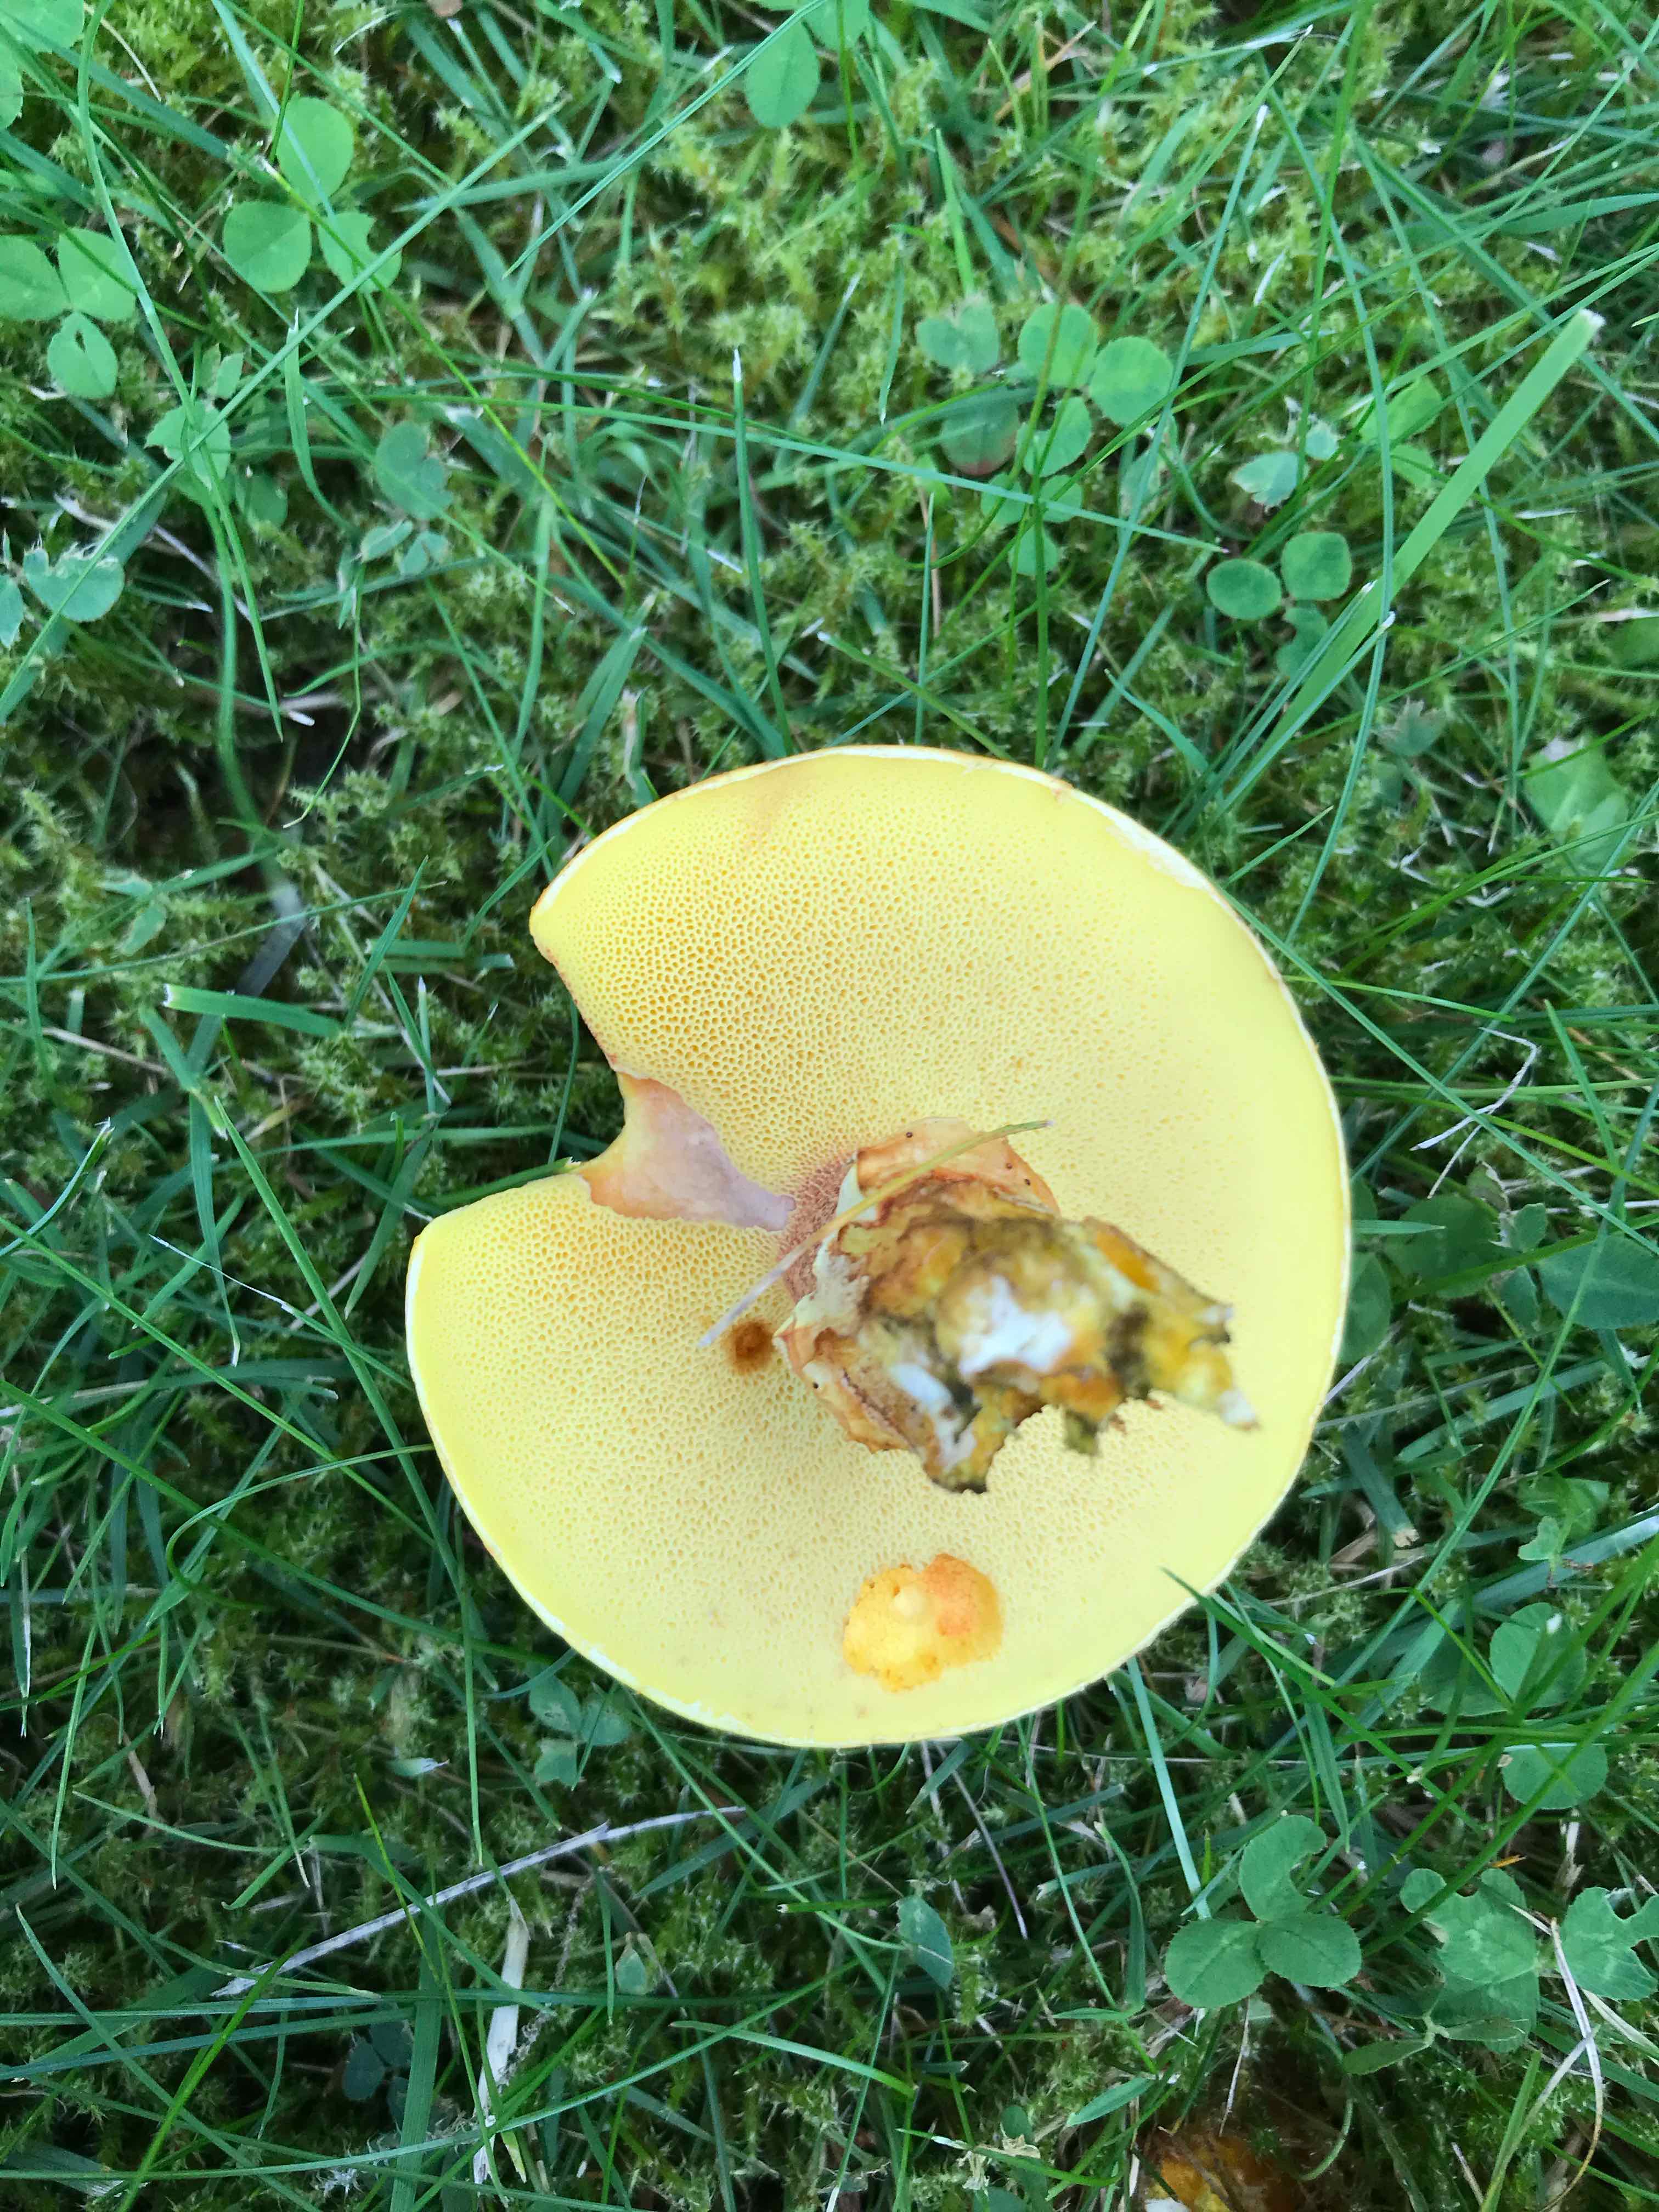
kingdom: Fungi
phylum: Basidiomycota
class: Agaricomycetes
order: Boletales
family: Suillaceae
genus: Suillus
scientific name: Suillus grevillei
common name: lærke-slimrørhat
